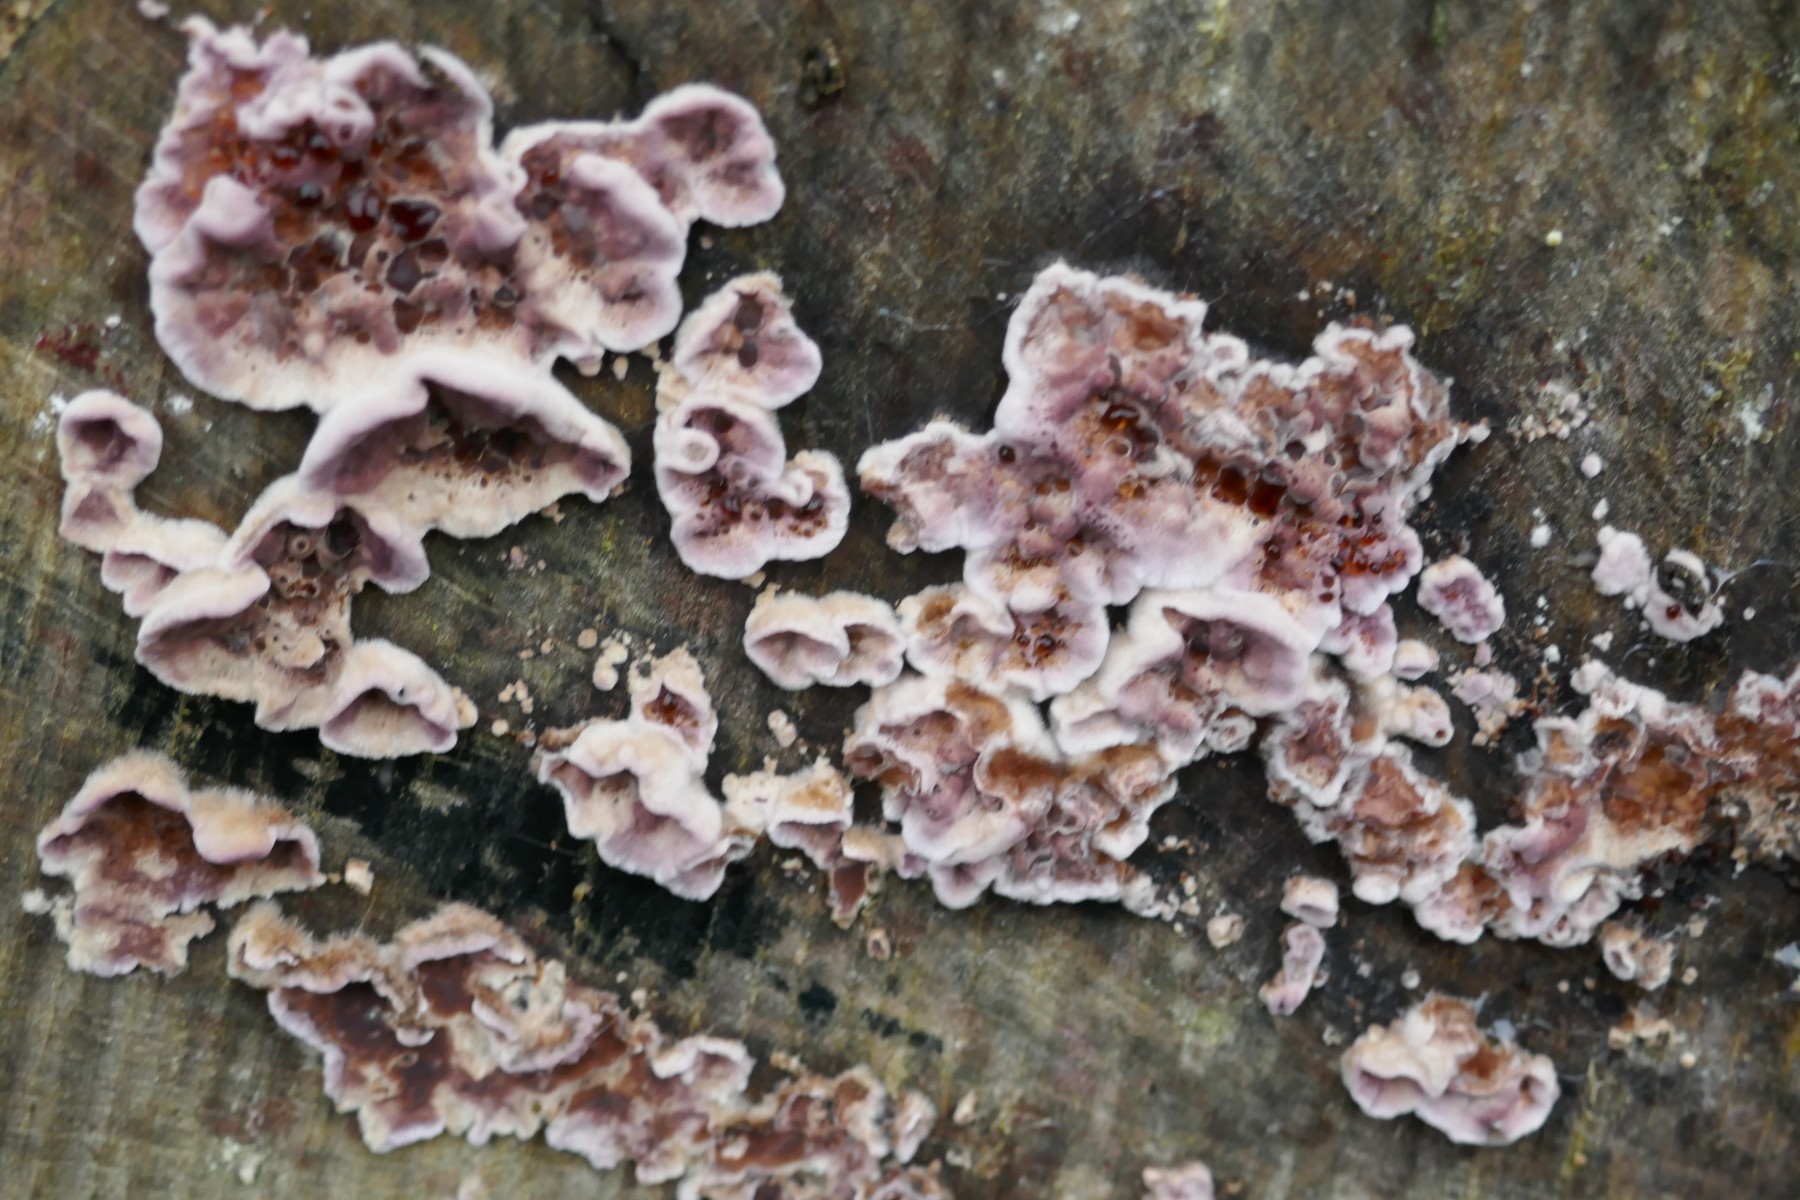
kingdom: Fungi
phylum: Basidiomycota
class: Agaricomycetes
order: Agaricales
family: Cyphellaceae
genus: Chondrostereum
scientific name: Chondrostereum purpureum
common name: purpurlædersvamp
